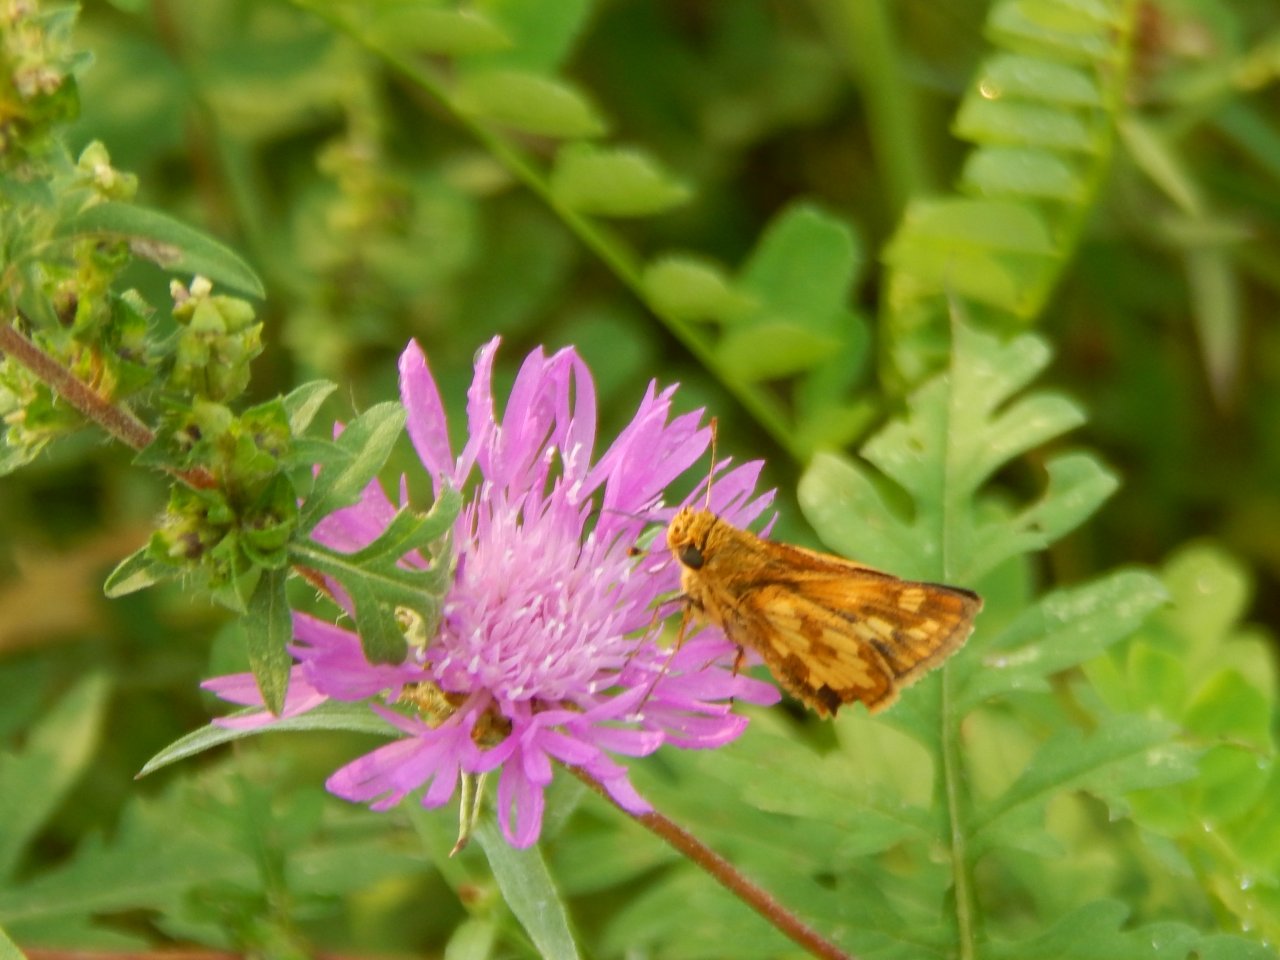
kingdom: Animalia
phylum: Arthropoda
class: Insecta
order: Lepidoptera
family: Hesperiidae
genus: Polites
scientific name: Polites coras
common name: Peck's Skipper
